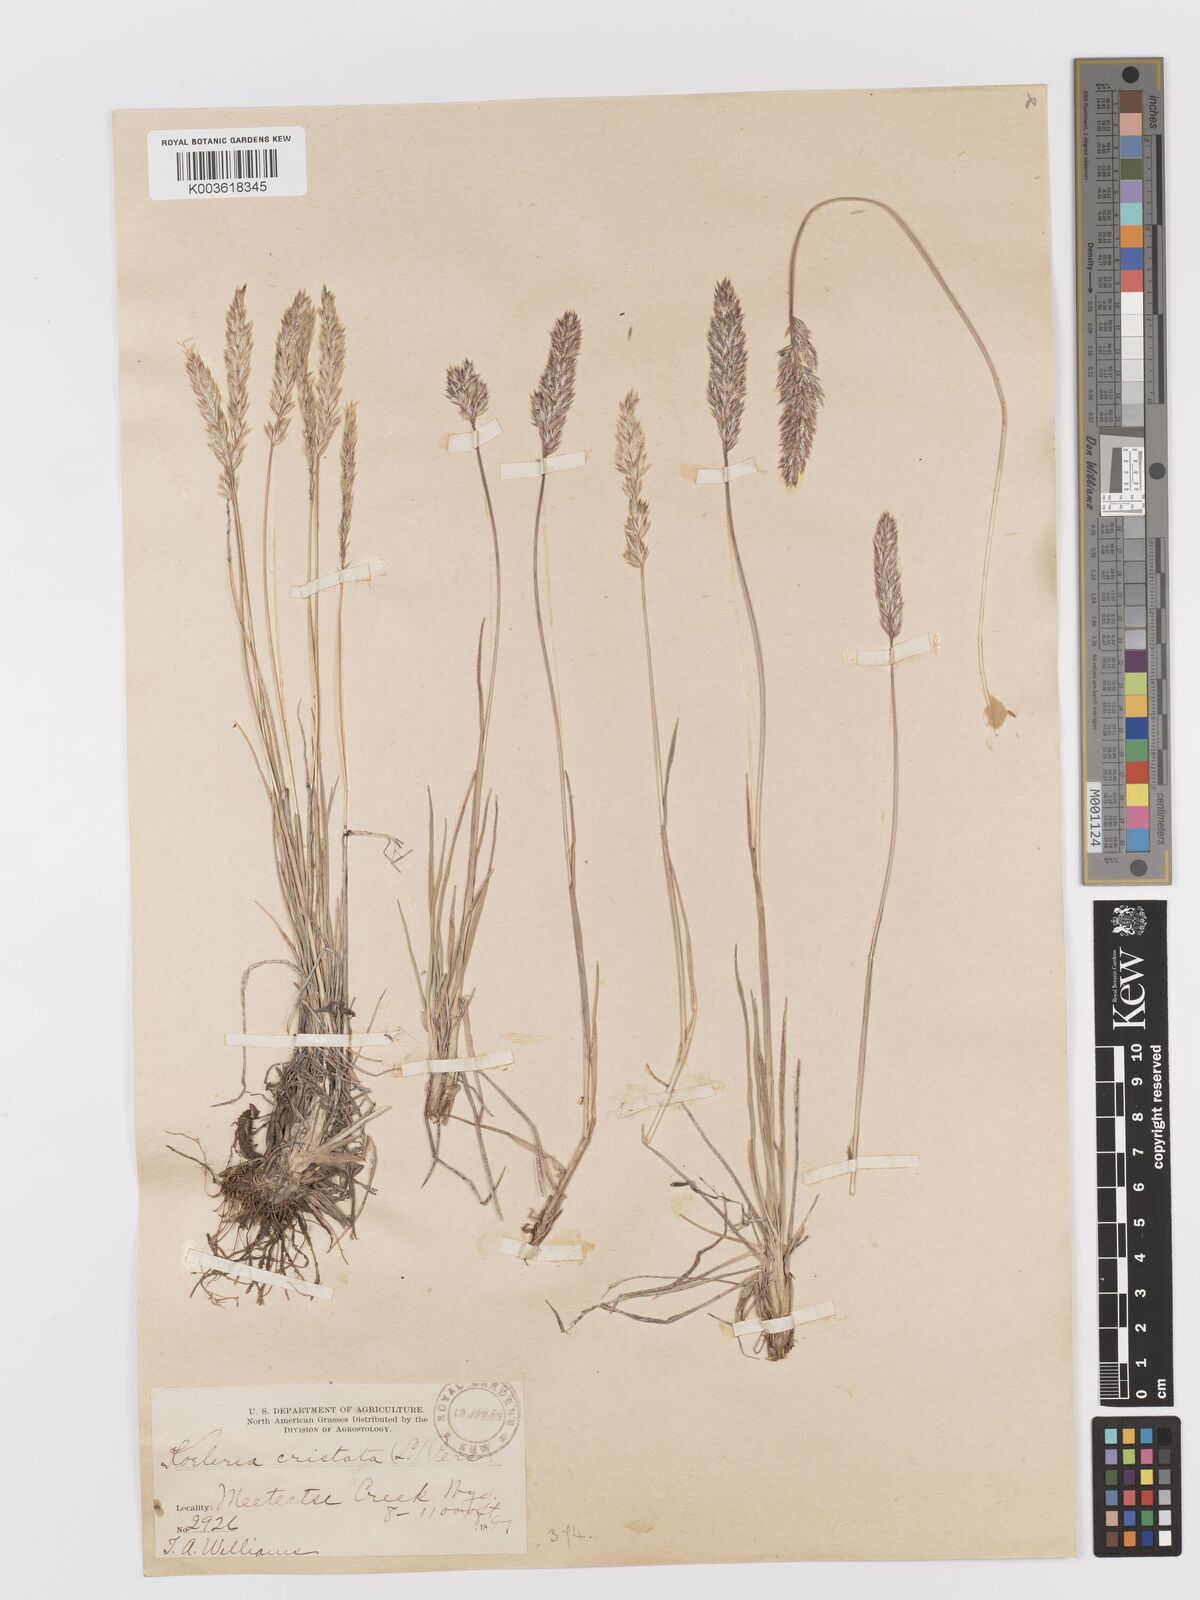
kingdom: Plantae
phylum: Tracheophyta
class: Liliopsida
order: Poales
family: Poaceae
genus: Koeleria
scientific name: Koeleria
